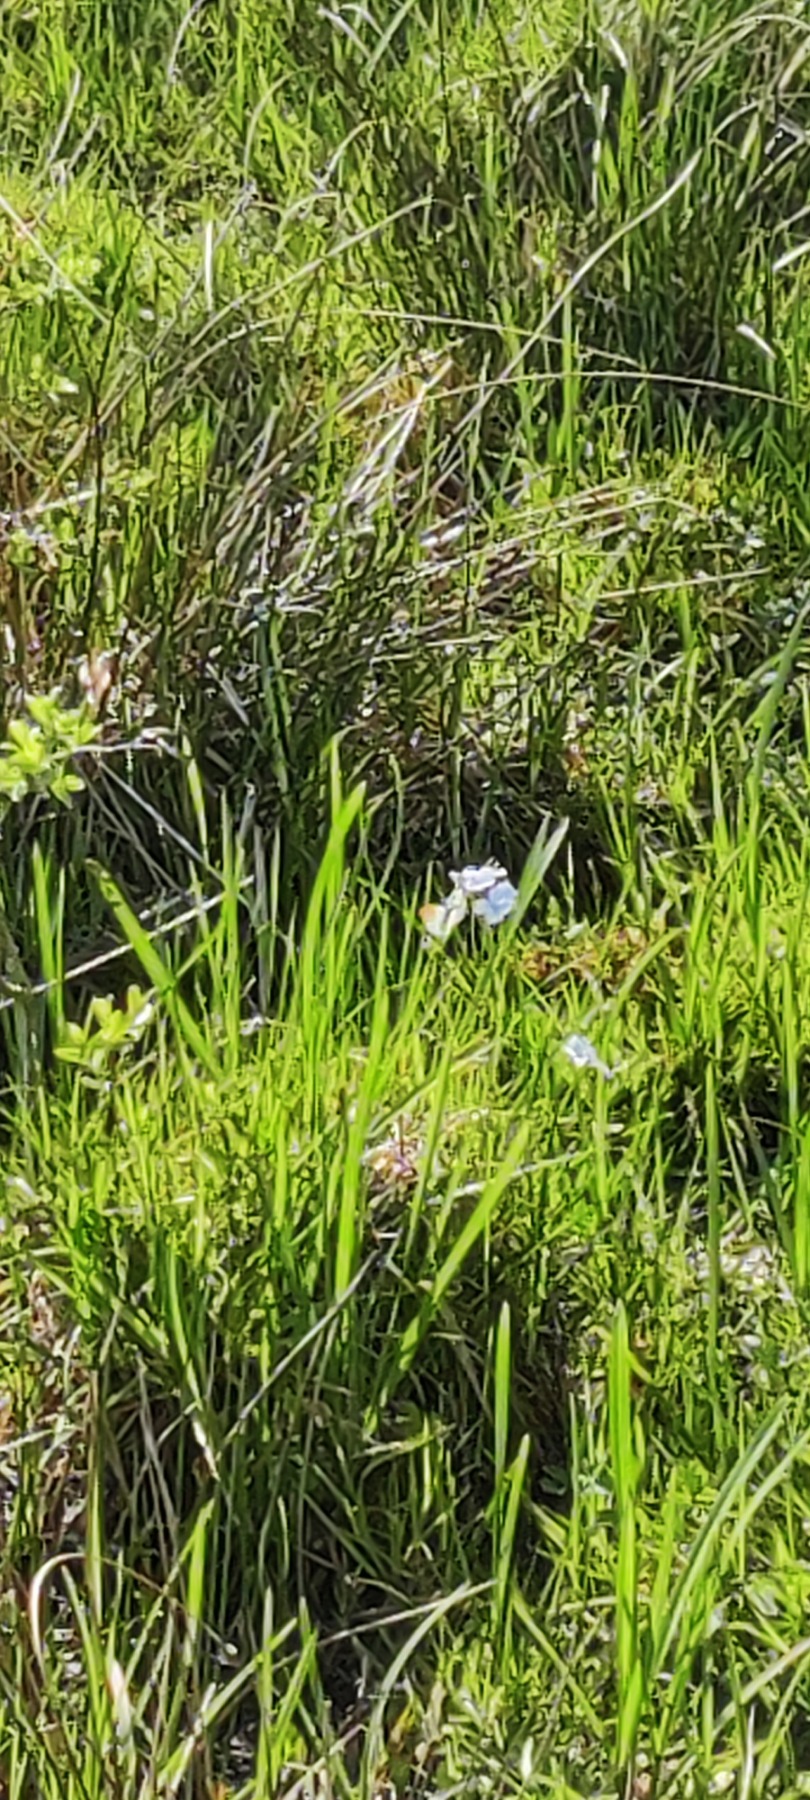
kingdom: Animalia
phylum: Arthropoda
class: Insecta
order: Lepidoptera
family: Pieridae
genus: Anthocharis
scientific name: Anthocharis cardamines
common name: Aurora
